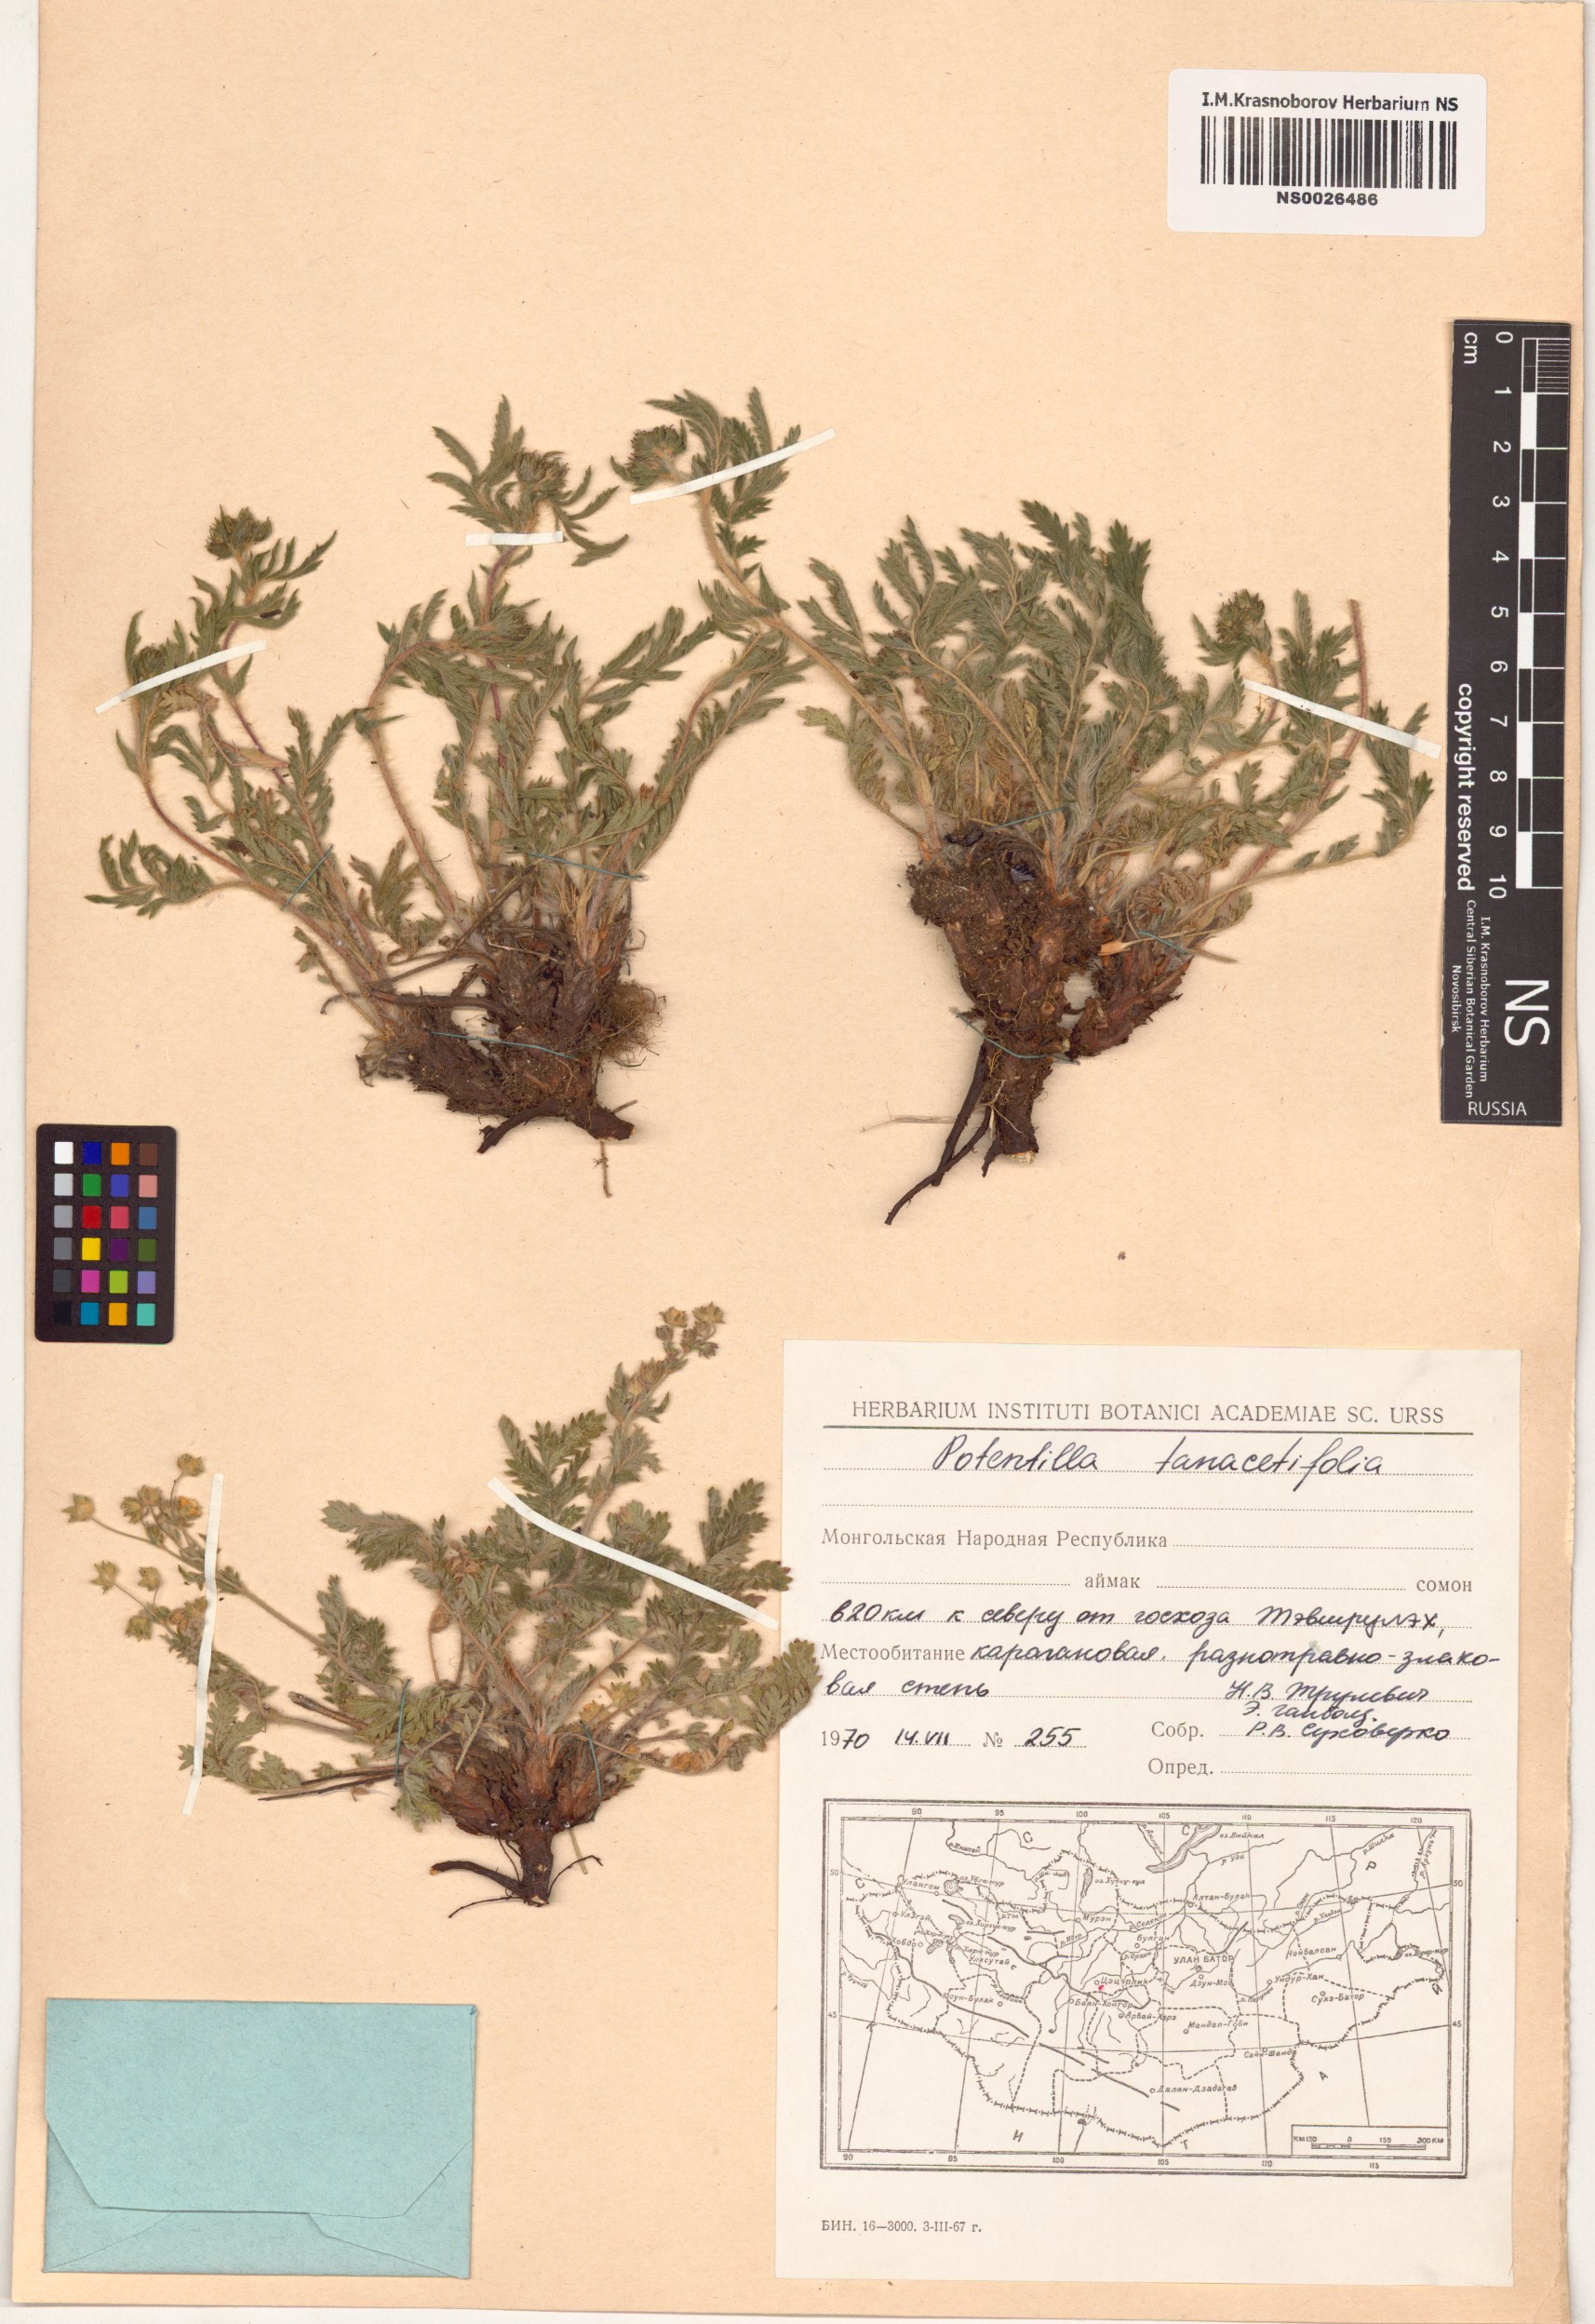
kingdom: Plantae
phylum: Tracheophyta
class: Magnoliopsida
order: Rosales
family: Rosaceae
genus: Potentilla
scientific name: Potentilla tanacetifolia
